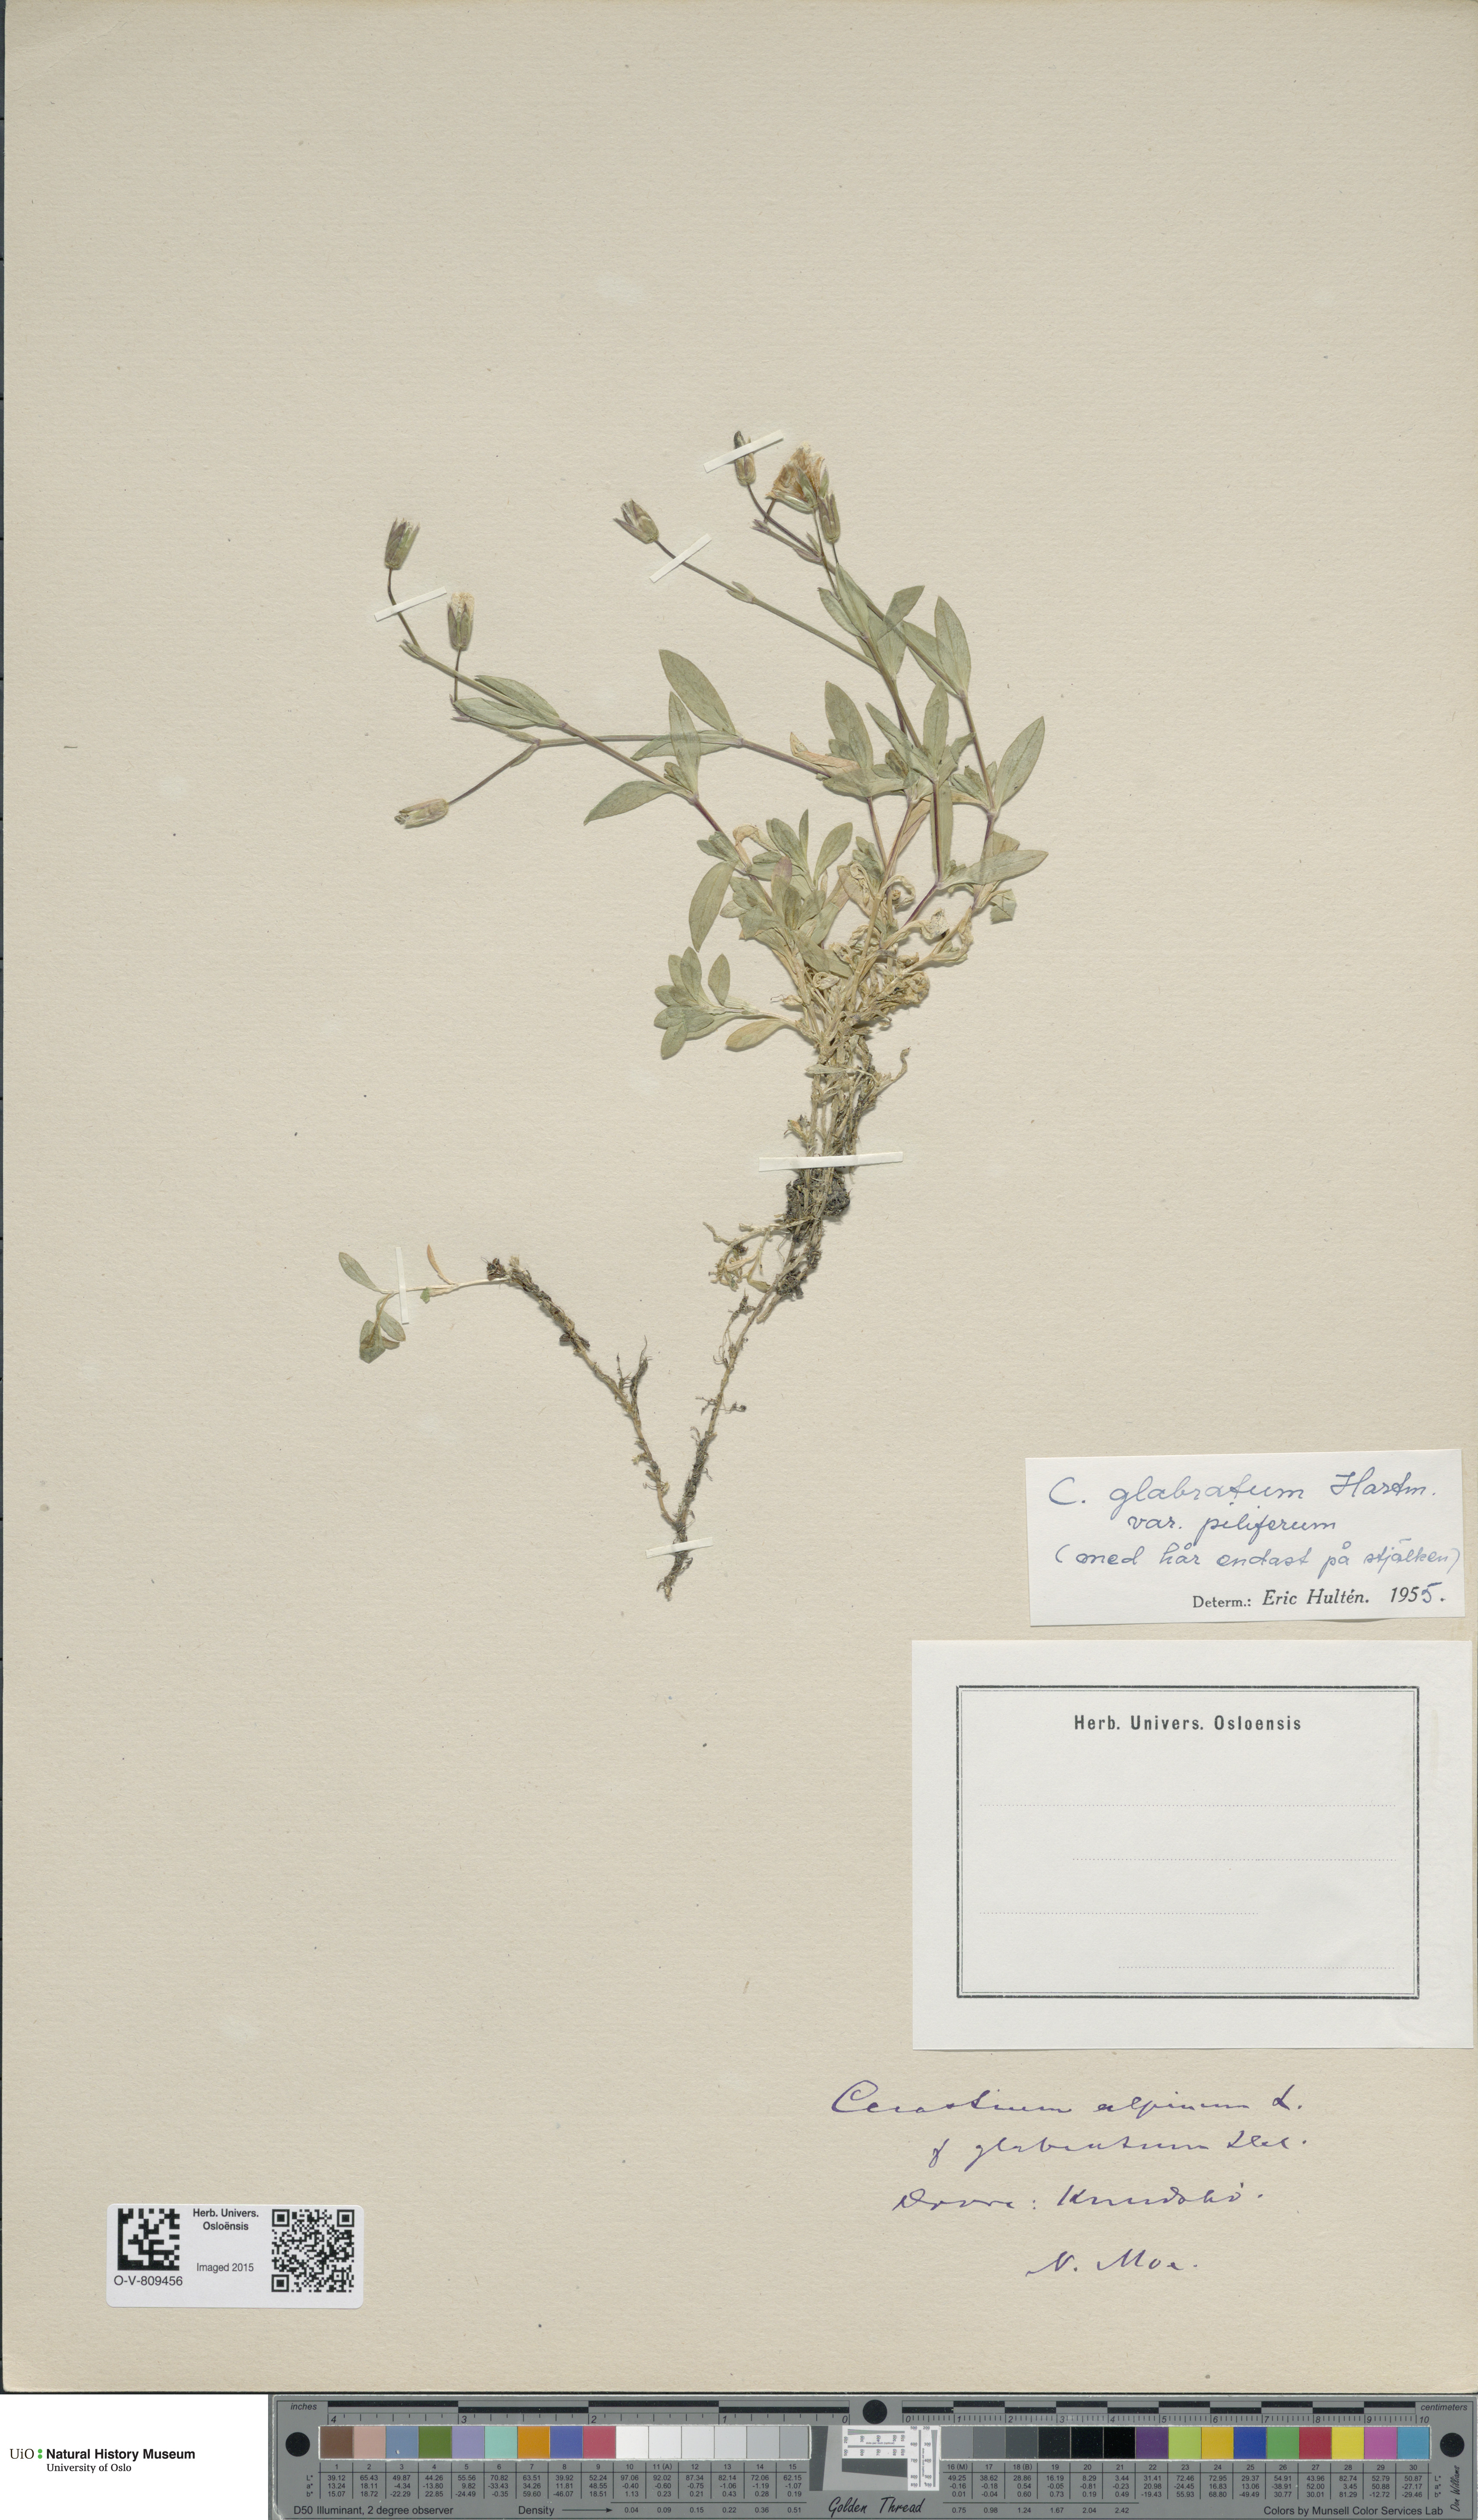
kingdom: Plantae
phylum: Tracheophyta
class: Magnoliopsida
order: Caryophyllales
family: Caryophyllaceae
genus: Cerastium
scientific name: Cerastium alpinum
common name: Alpine mouse-ear
